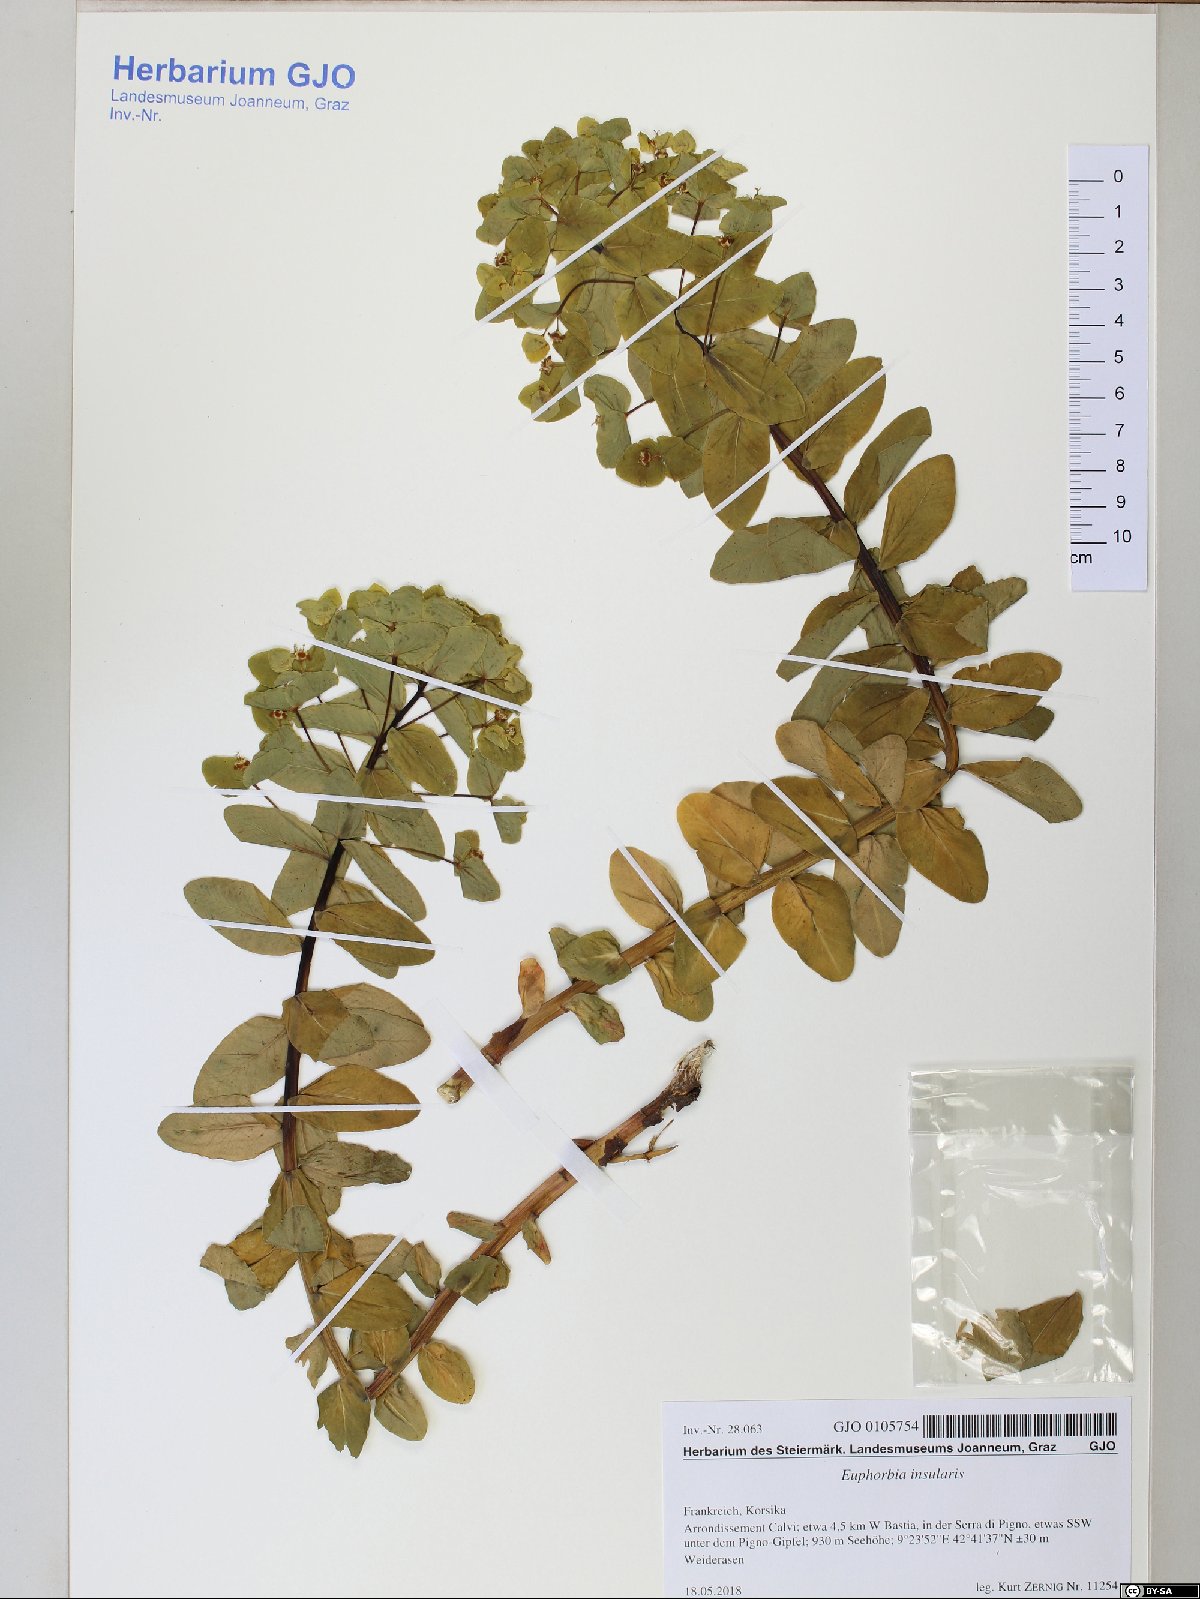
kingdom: Plantae
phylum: Tracheophyta
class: Magnoliopsida
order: Malpighiales
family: Euphorbiaceae
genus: Euphorbia
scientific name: Euphorbia insularis
